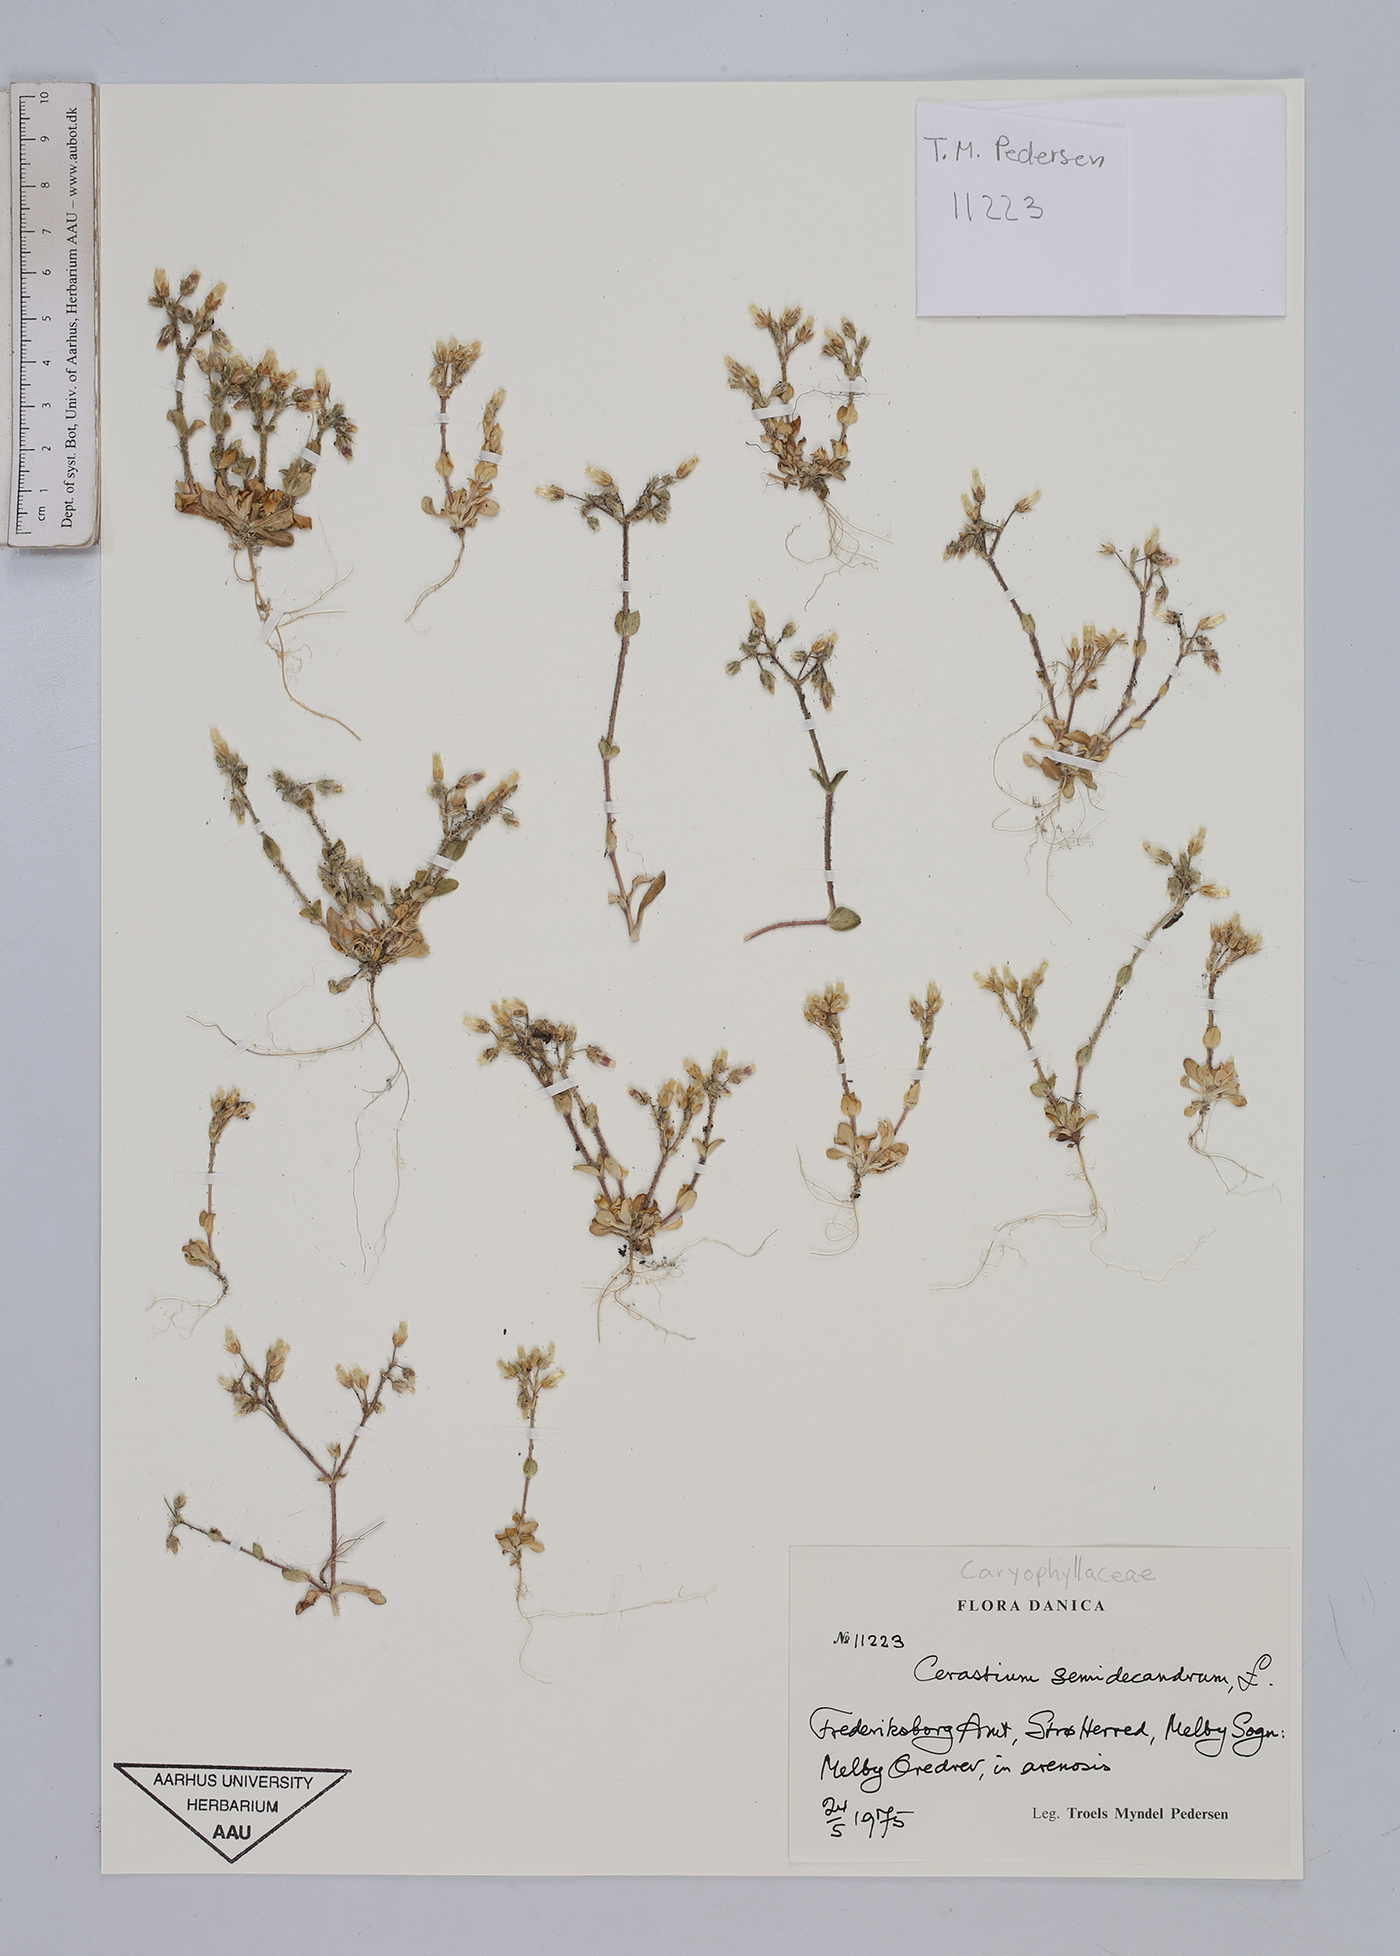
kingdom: Plantae
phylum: Tracheophyta
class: Magnoliopsida
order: Caryophyllales
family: Caryophyllaceae
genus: Cerastium
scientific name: Cerastium semidecandrum
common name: Little mouse-ear
